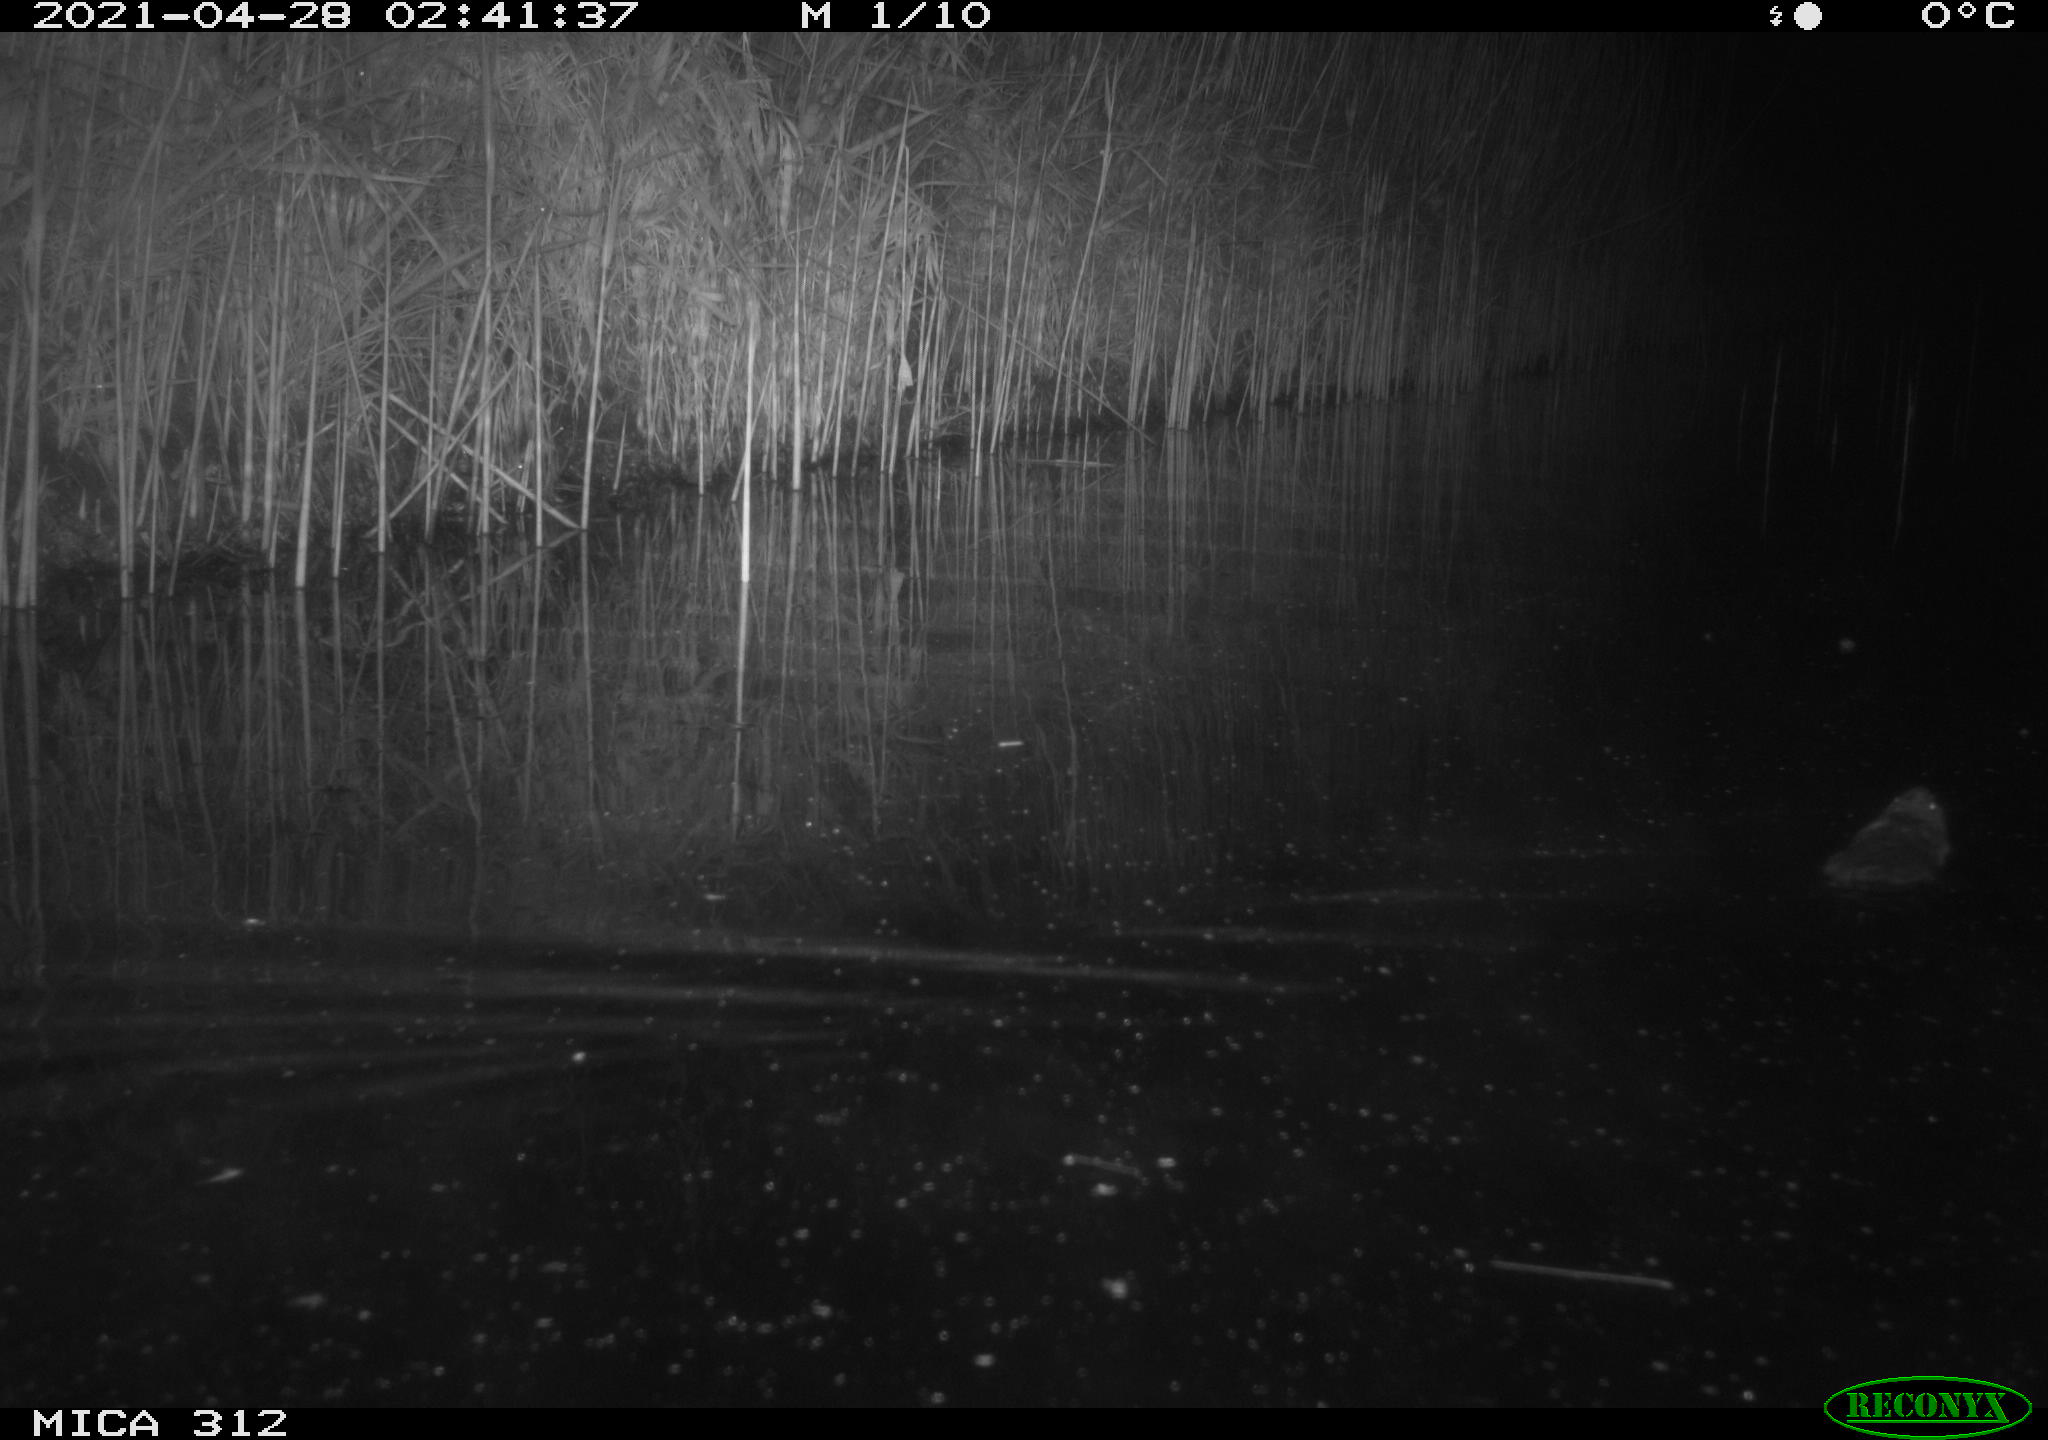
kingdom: Animalia
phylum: Chordata
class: Mammalia
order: Rodentia
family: Muridae
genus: Rattus
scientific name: Rattus norvegicus
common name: Brown rat
